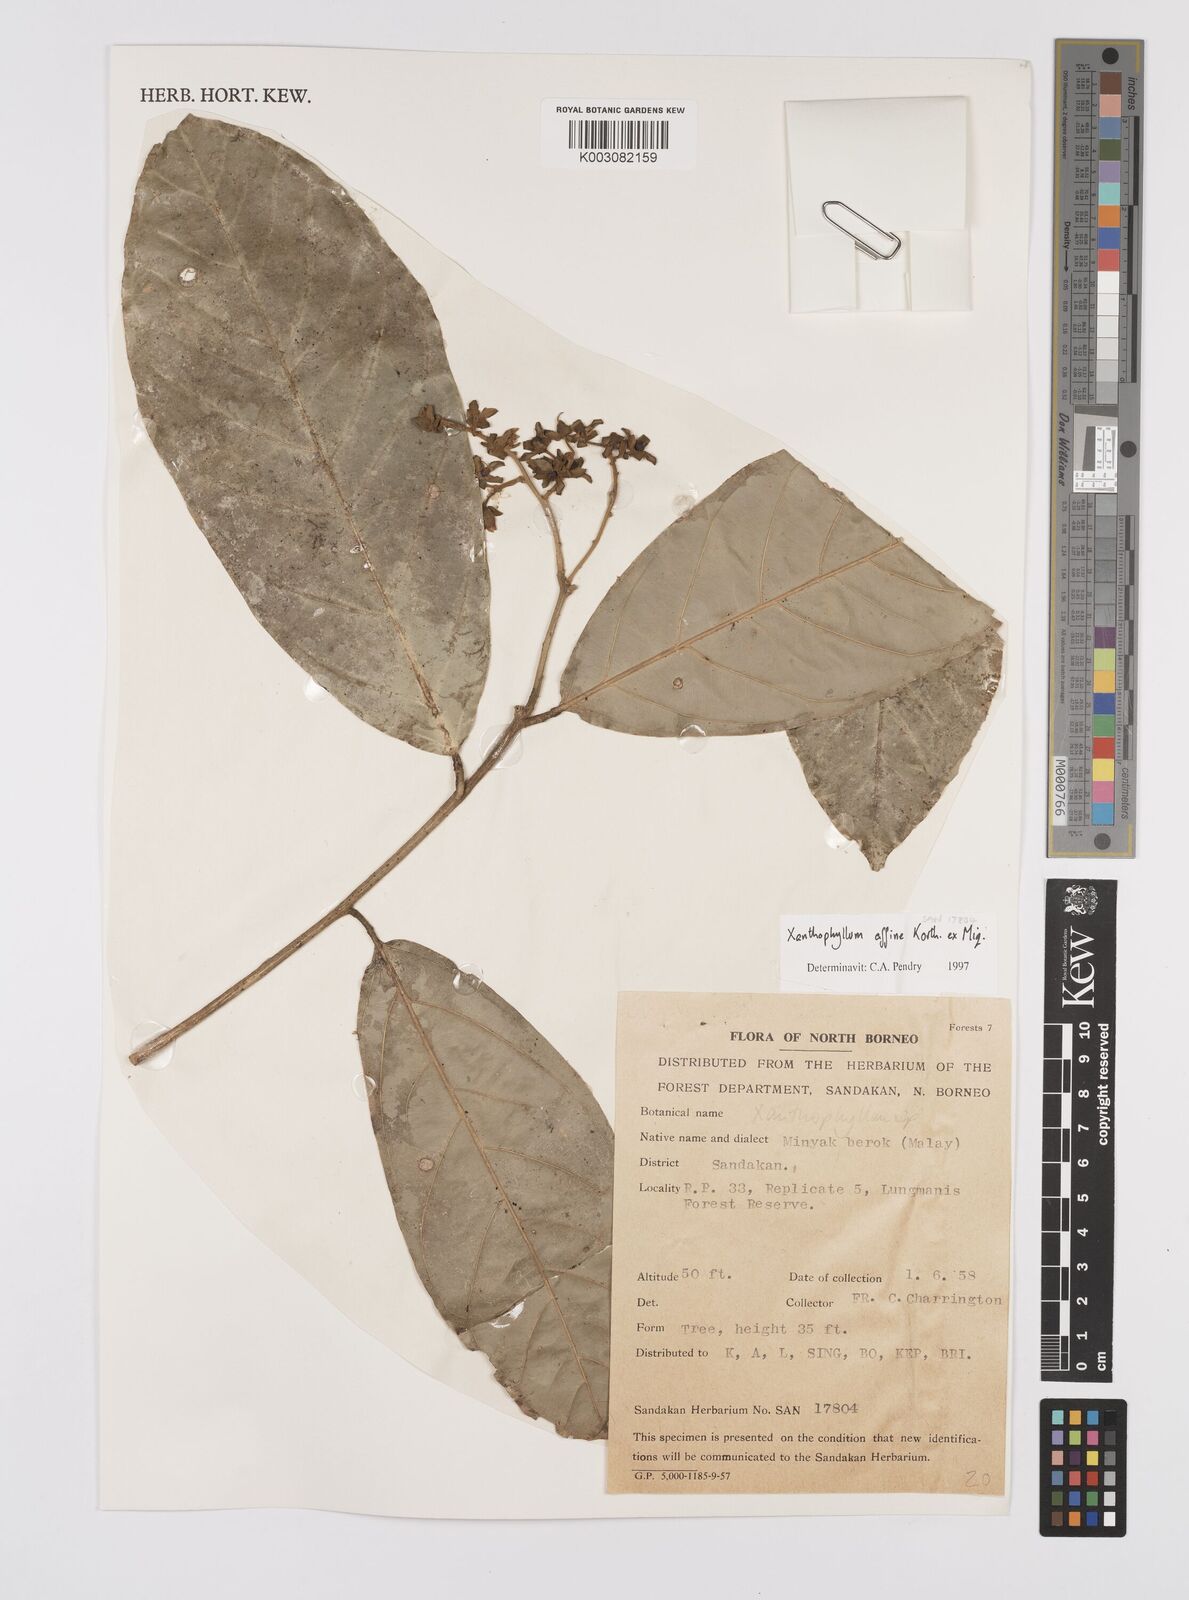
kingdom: Plantae
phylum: Tracheophyta
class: Magnoliopsida
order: Fabales
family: Polygalaceae
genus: Xanthophyllum
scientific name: Xanthophyllum flavescens
